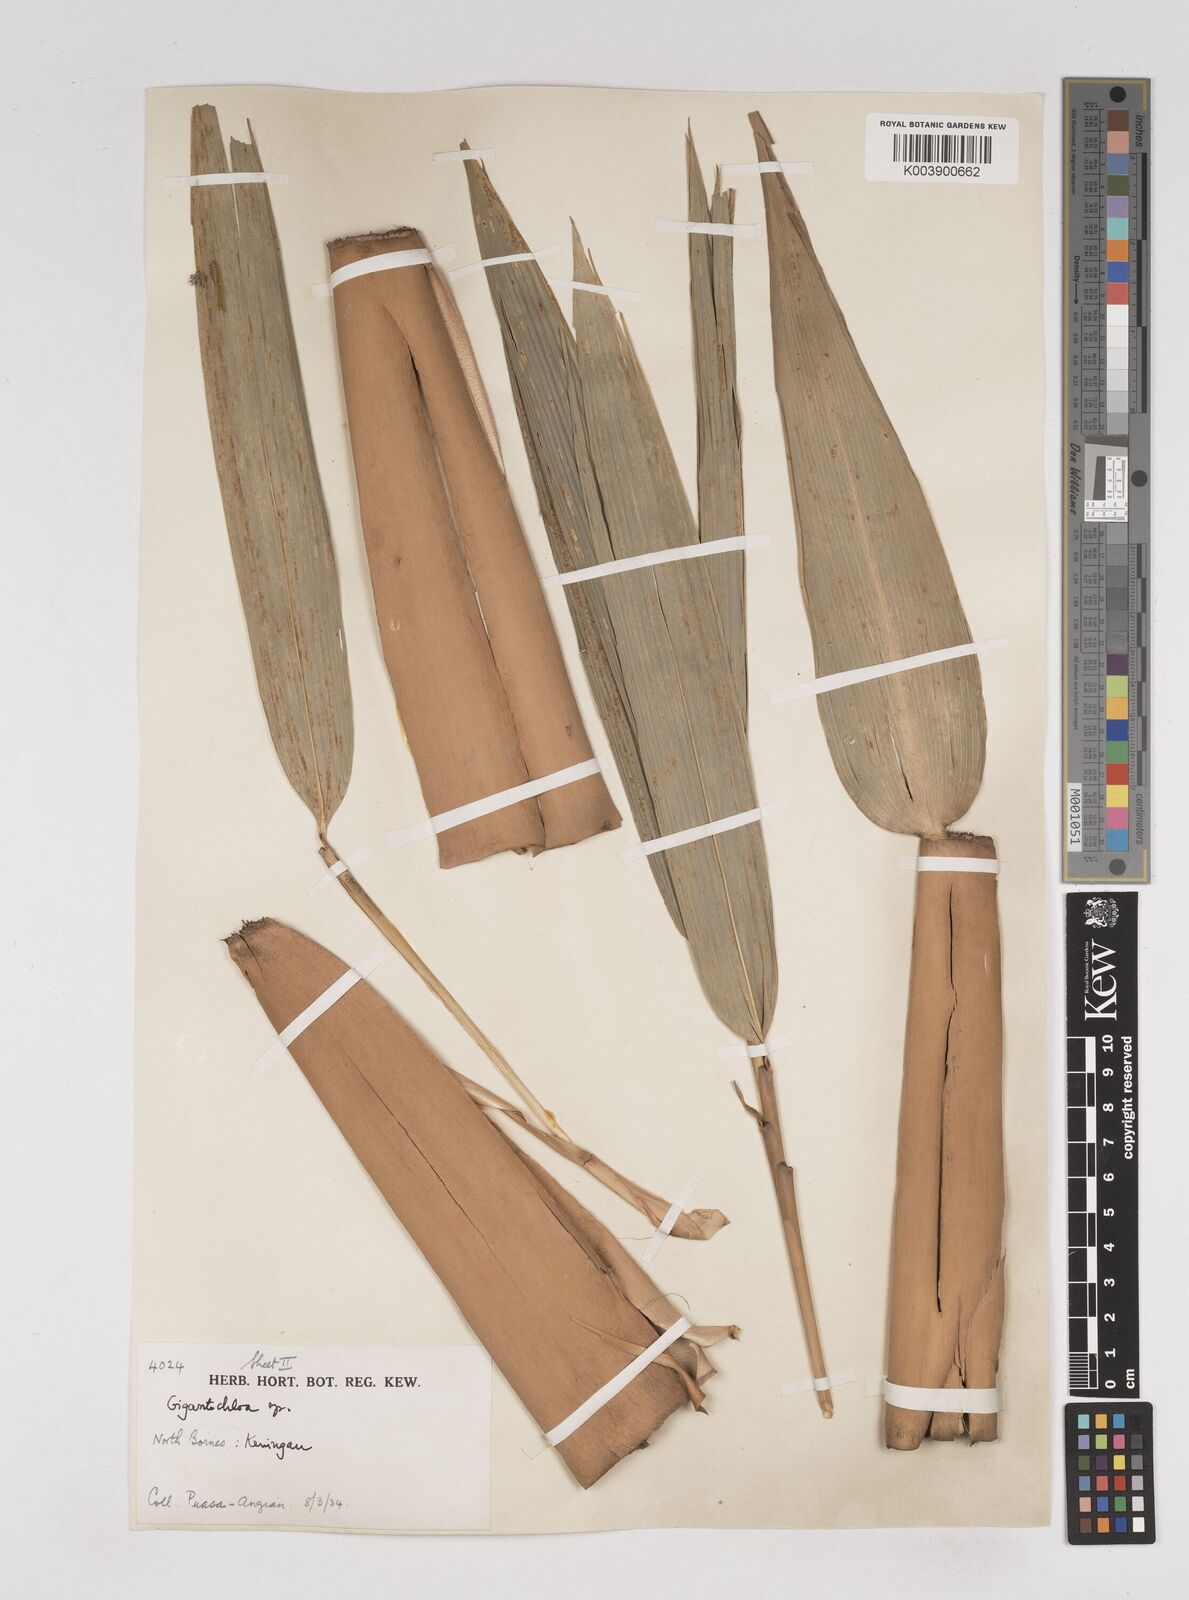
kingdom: Plantae
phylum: Tracheophyta
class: Liliopsida
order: Poales
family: Poaceae
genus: Gigantochloa
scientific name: Gigantochloa longiprophylla
